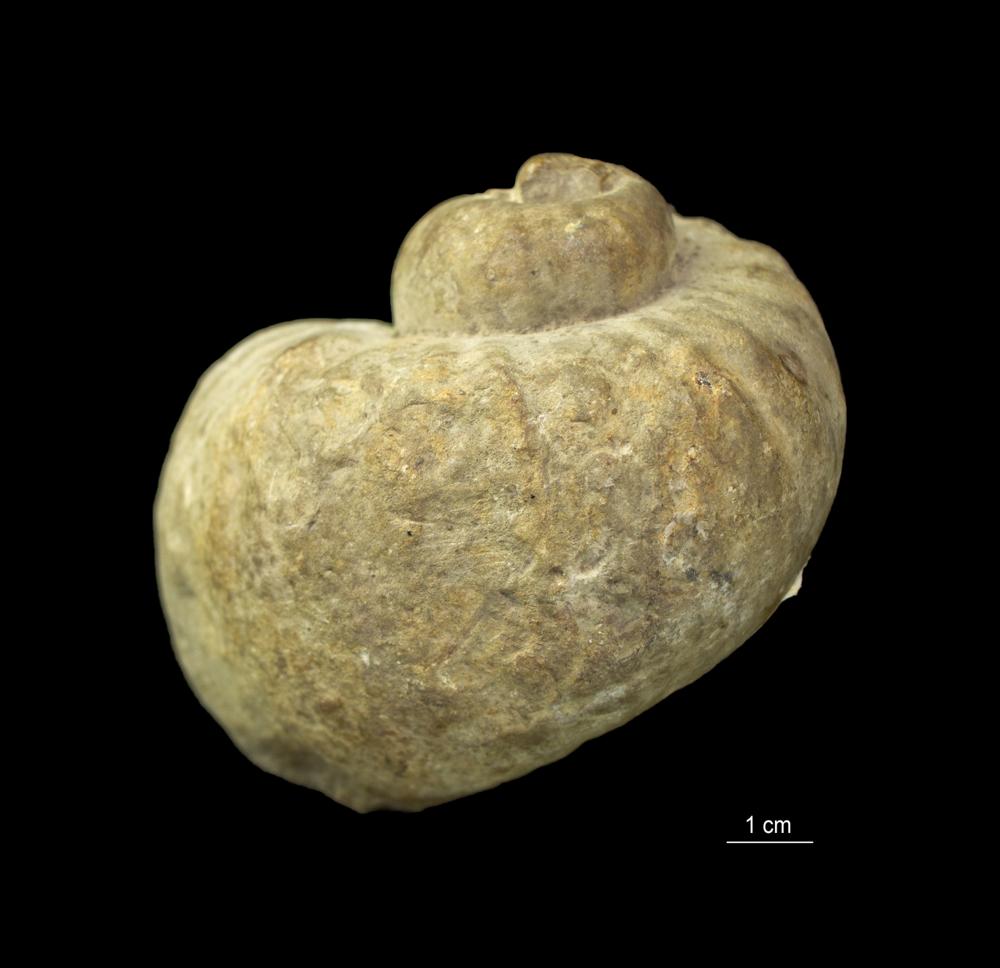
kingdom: Animalia
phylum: Mollusca
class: Gastropoda
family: Holopeidae
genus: Holopea
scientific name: Holopea ampullacea
